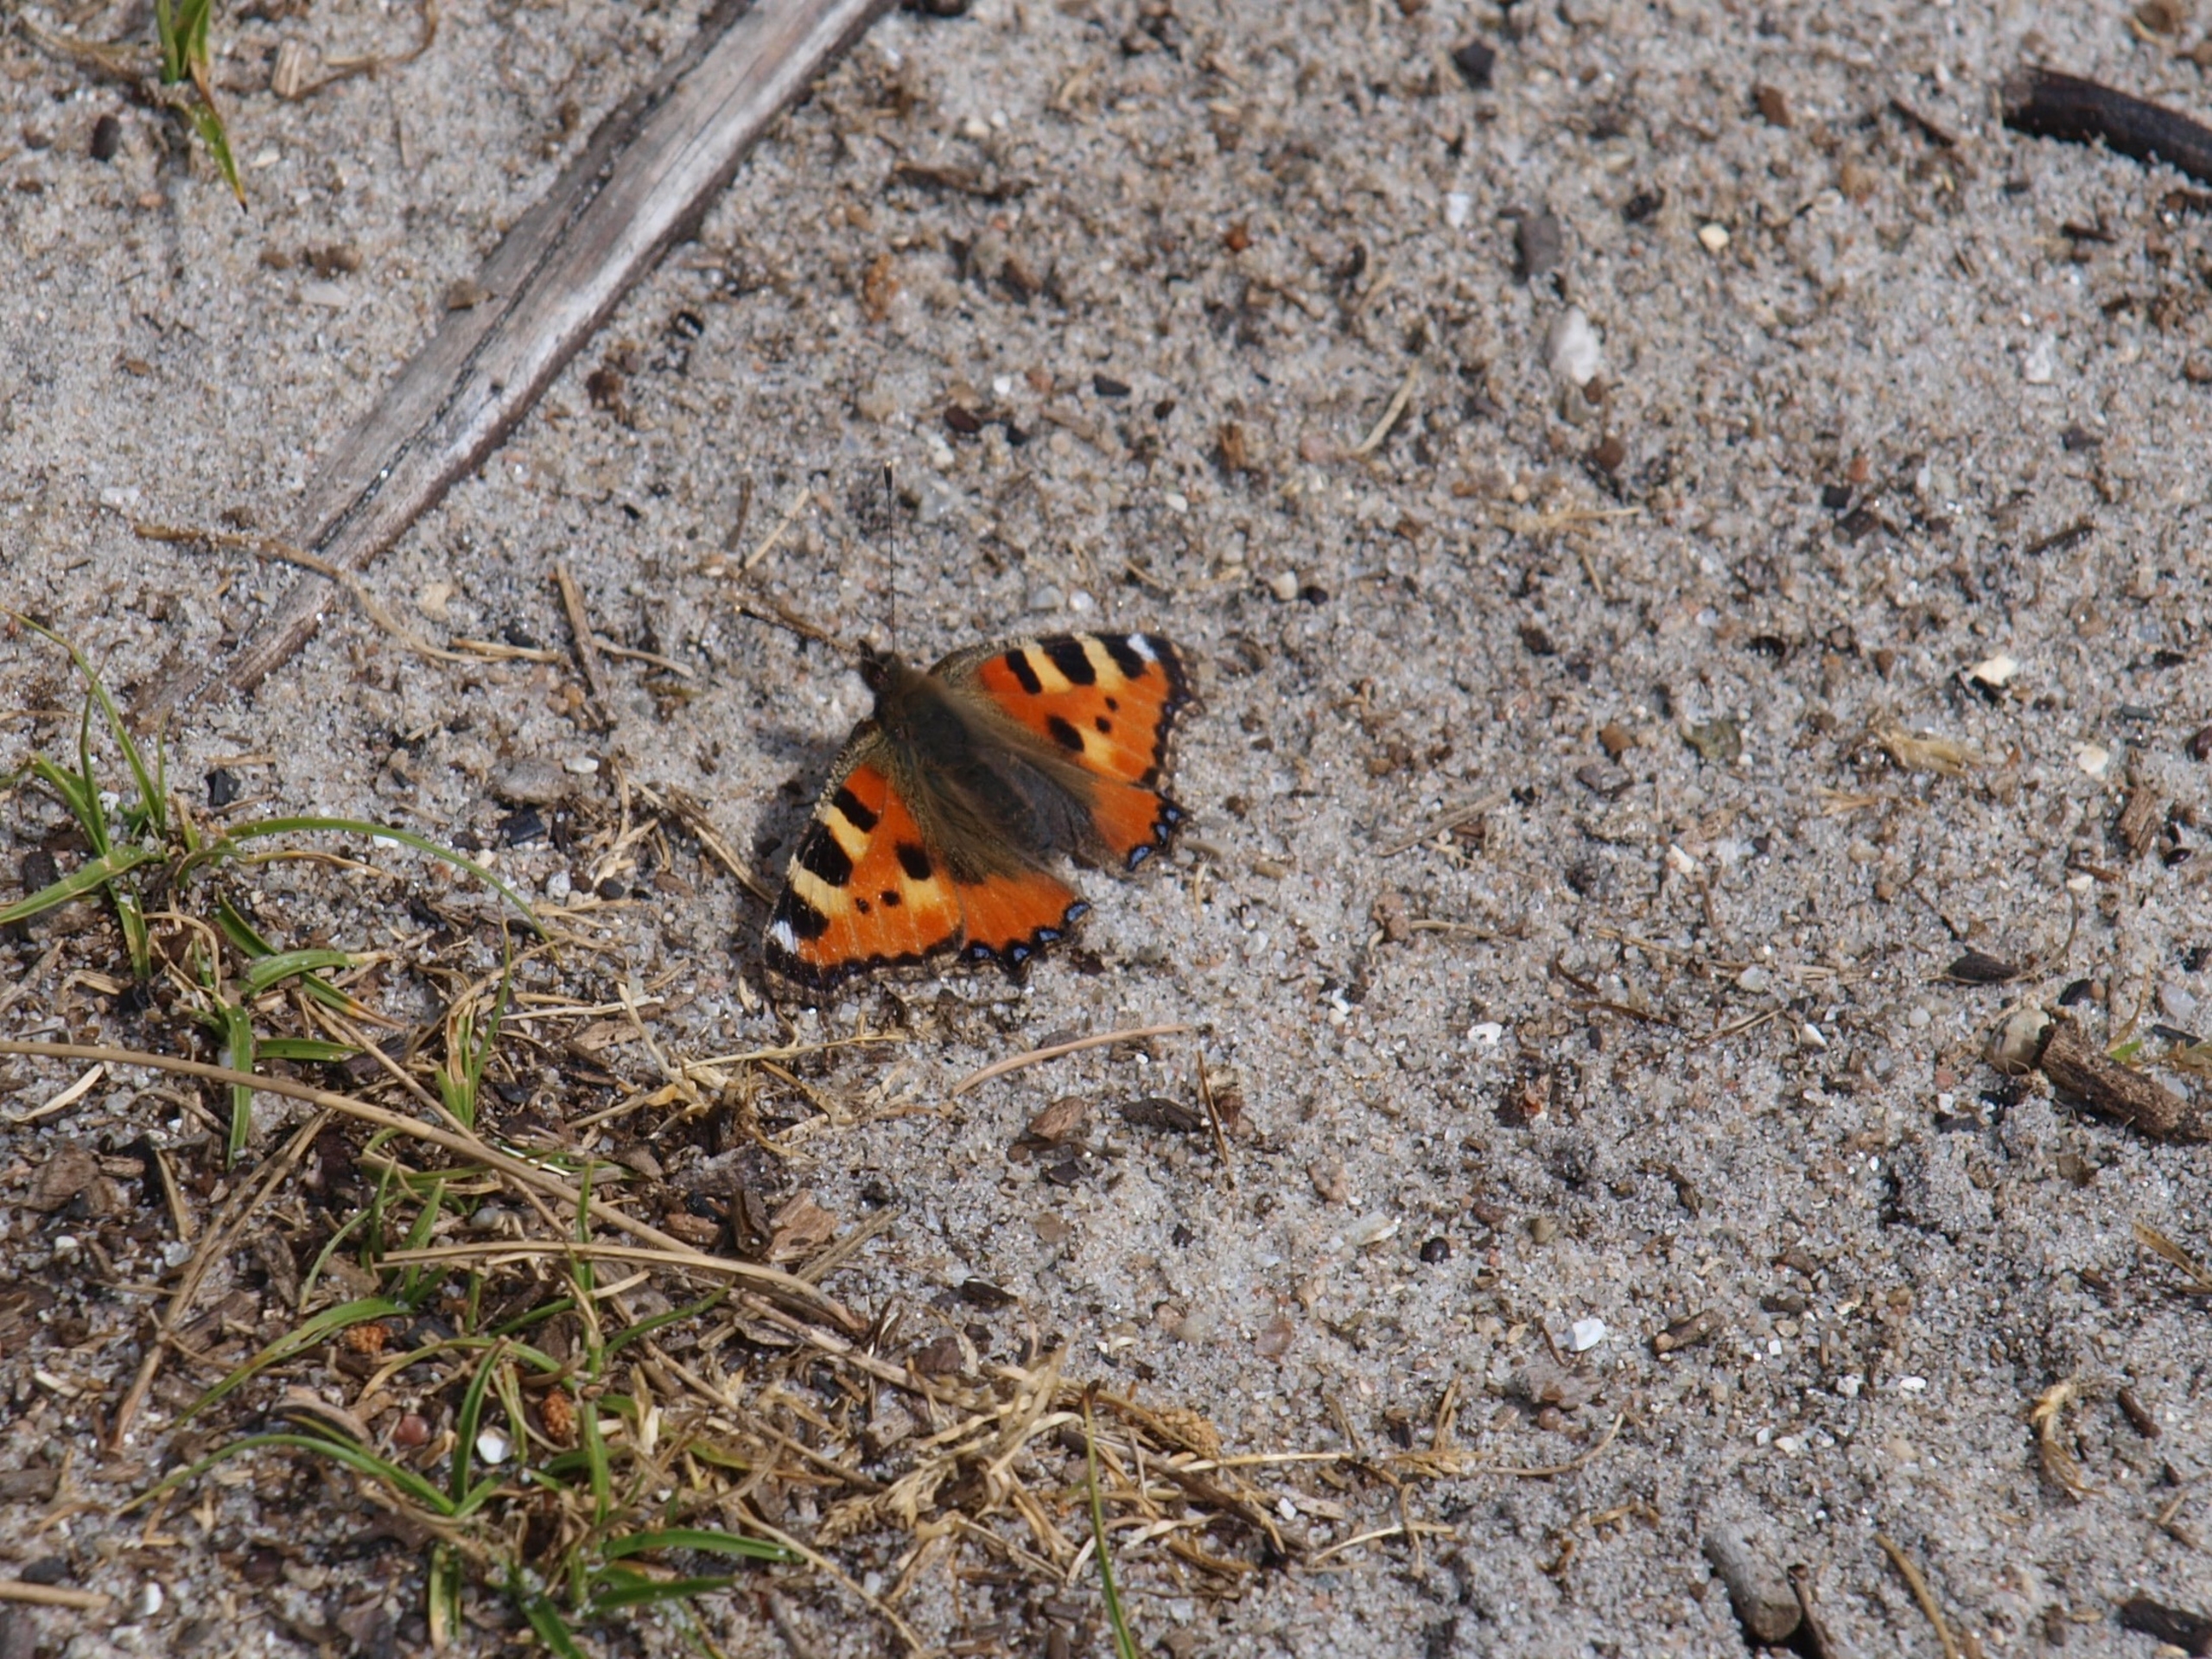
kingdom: Animalia
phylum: Arthropoda
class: Insecta
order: Lepidoptera
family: Nymphalidae
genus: Aglais
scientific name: Aglais urticae
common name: Nældens takvinge
